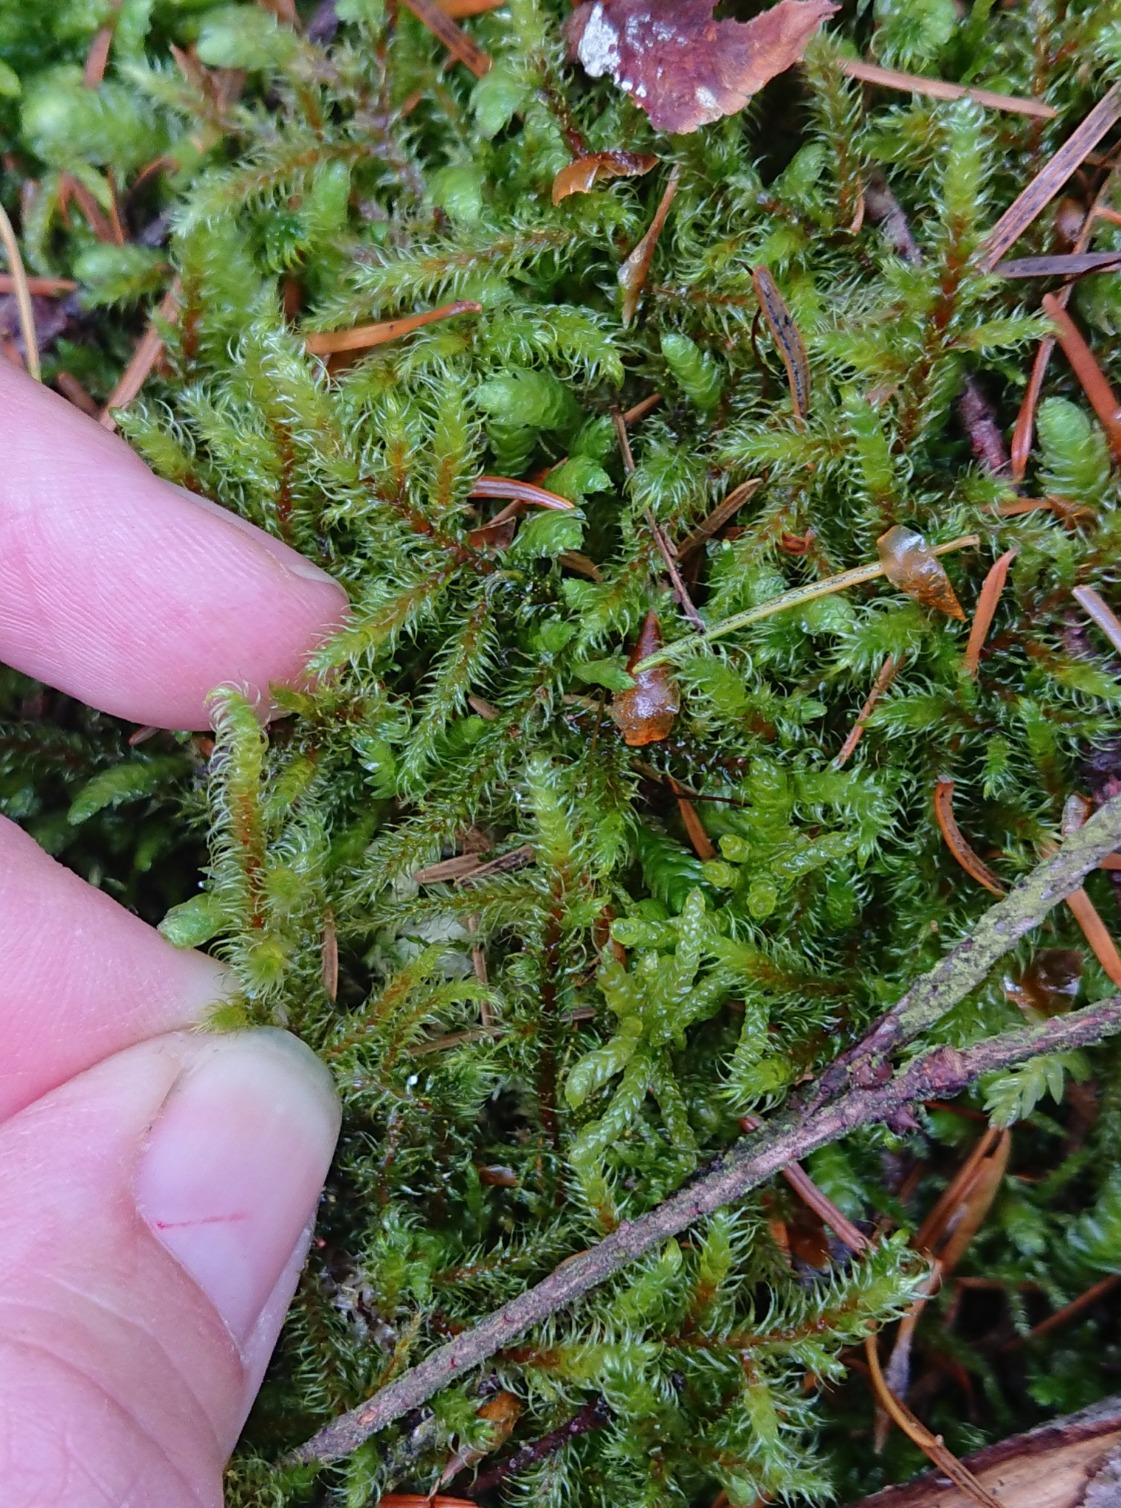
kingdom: Plantae
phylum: Bryophyta
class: Bryopsida
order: Hypnales
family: Hylocomiaceae
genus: Rhytidiadelphus
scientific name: Rhytidiadelphus loreus
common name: Ulvefod-kransemos
